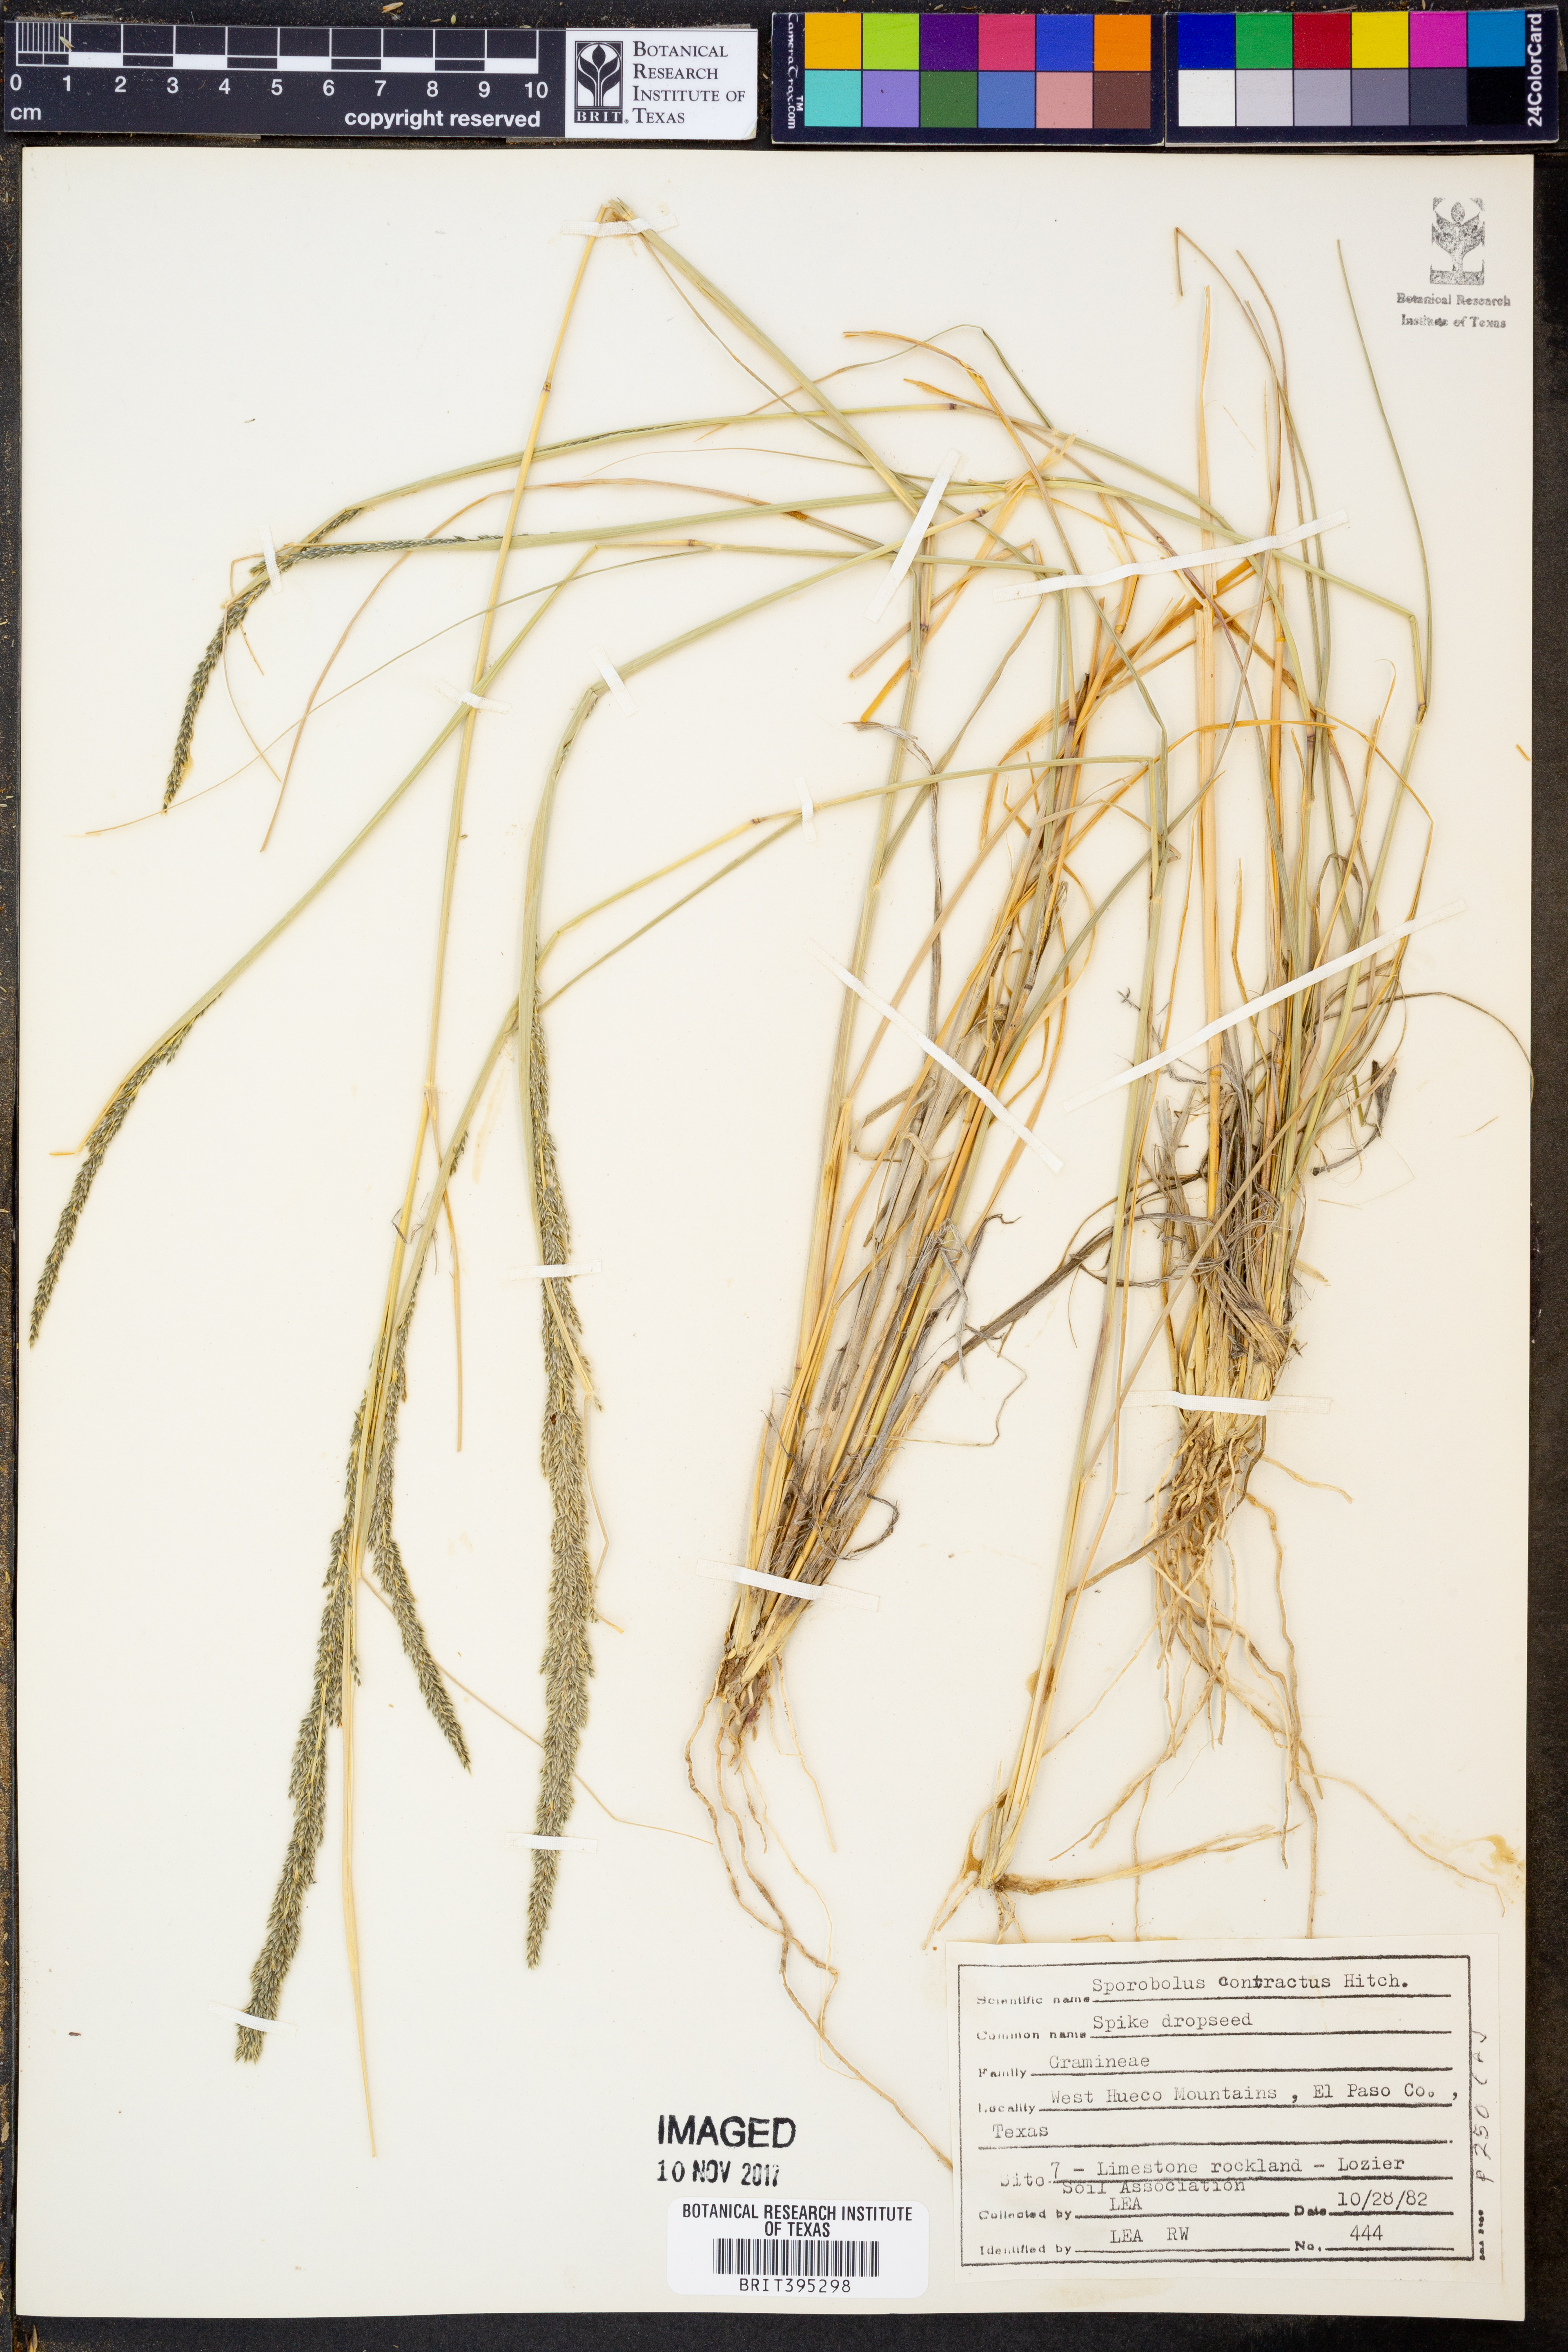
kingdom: Plantae
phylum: Tracheophyta
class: Liliopsida
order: Poales
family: Poaceae
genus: Sporobolus
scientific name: Sporobolus contractus
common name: Spike dropseed
